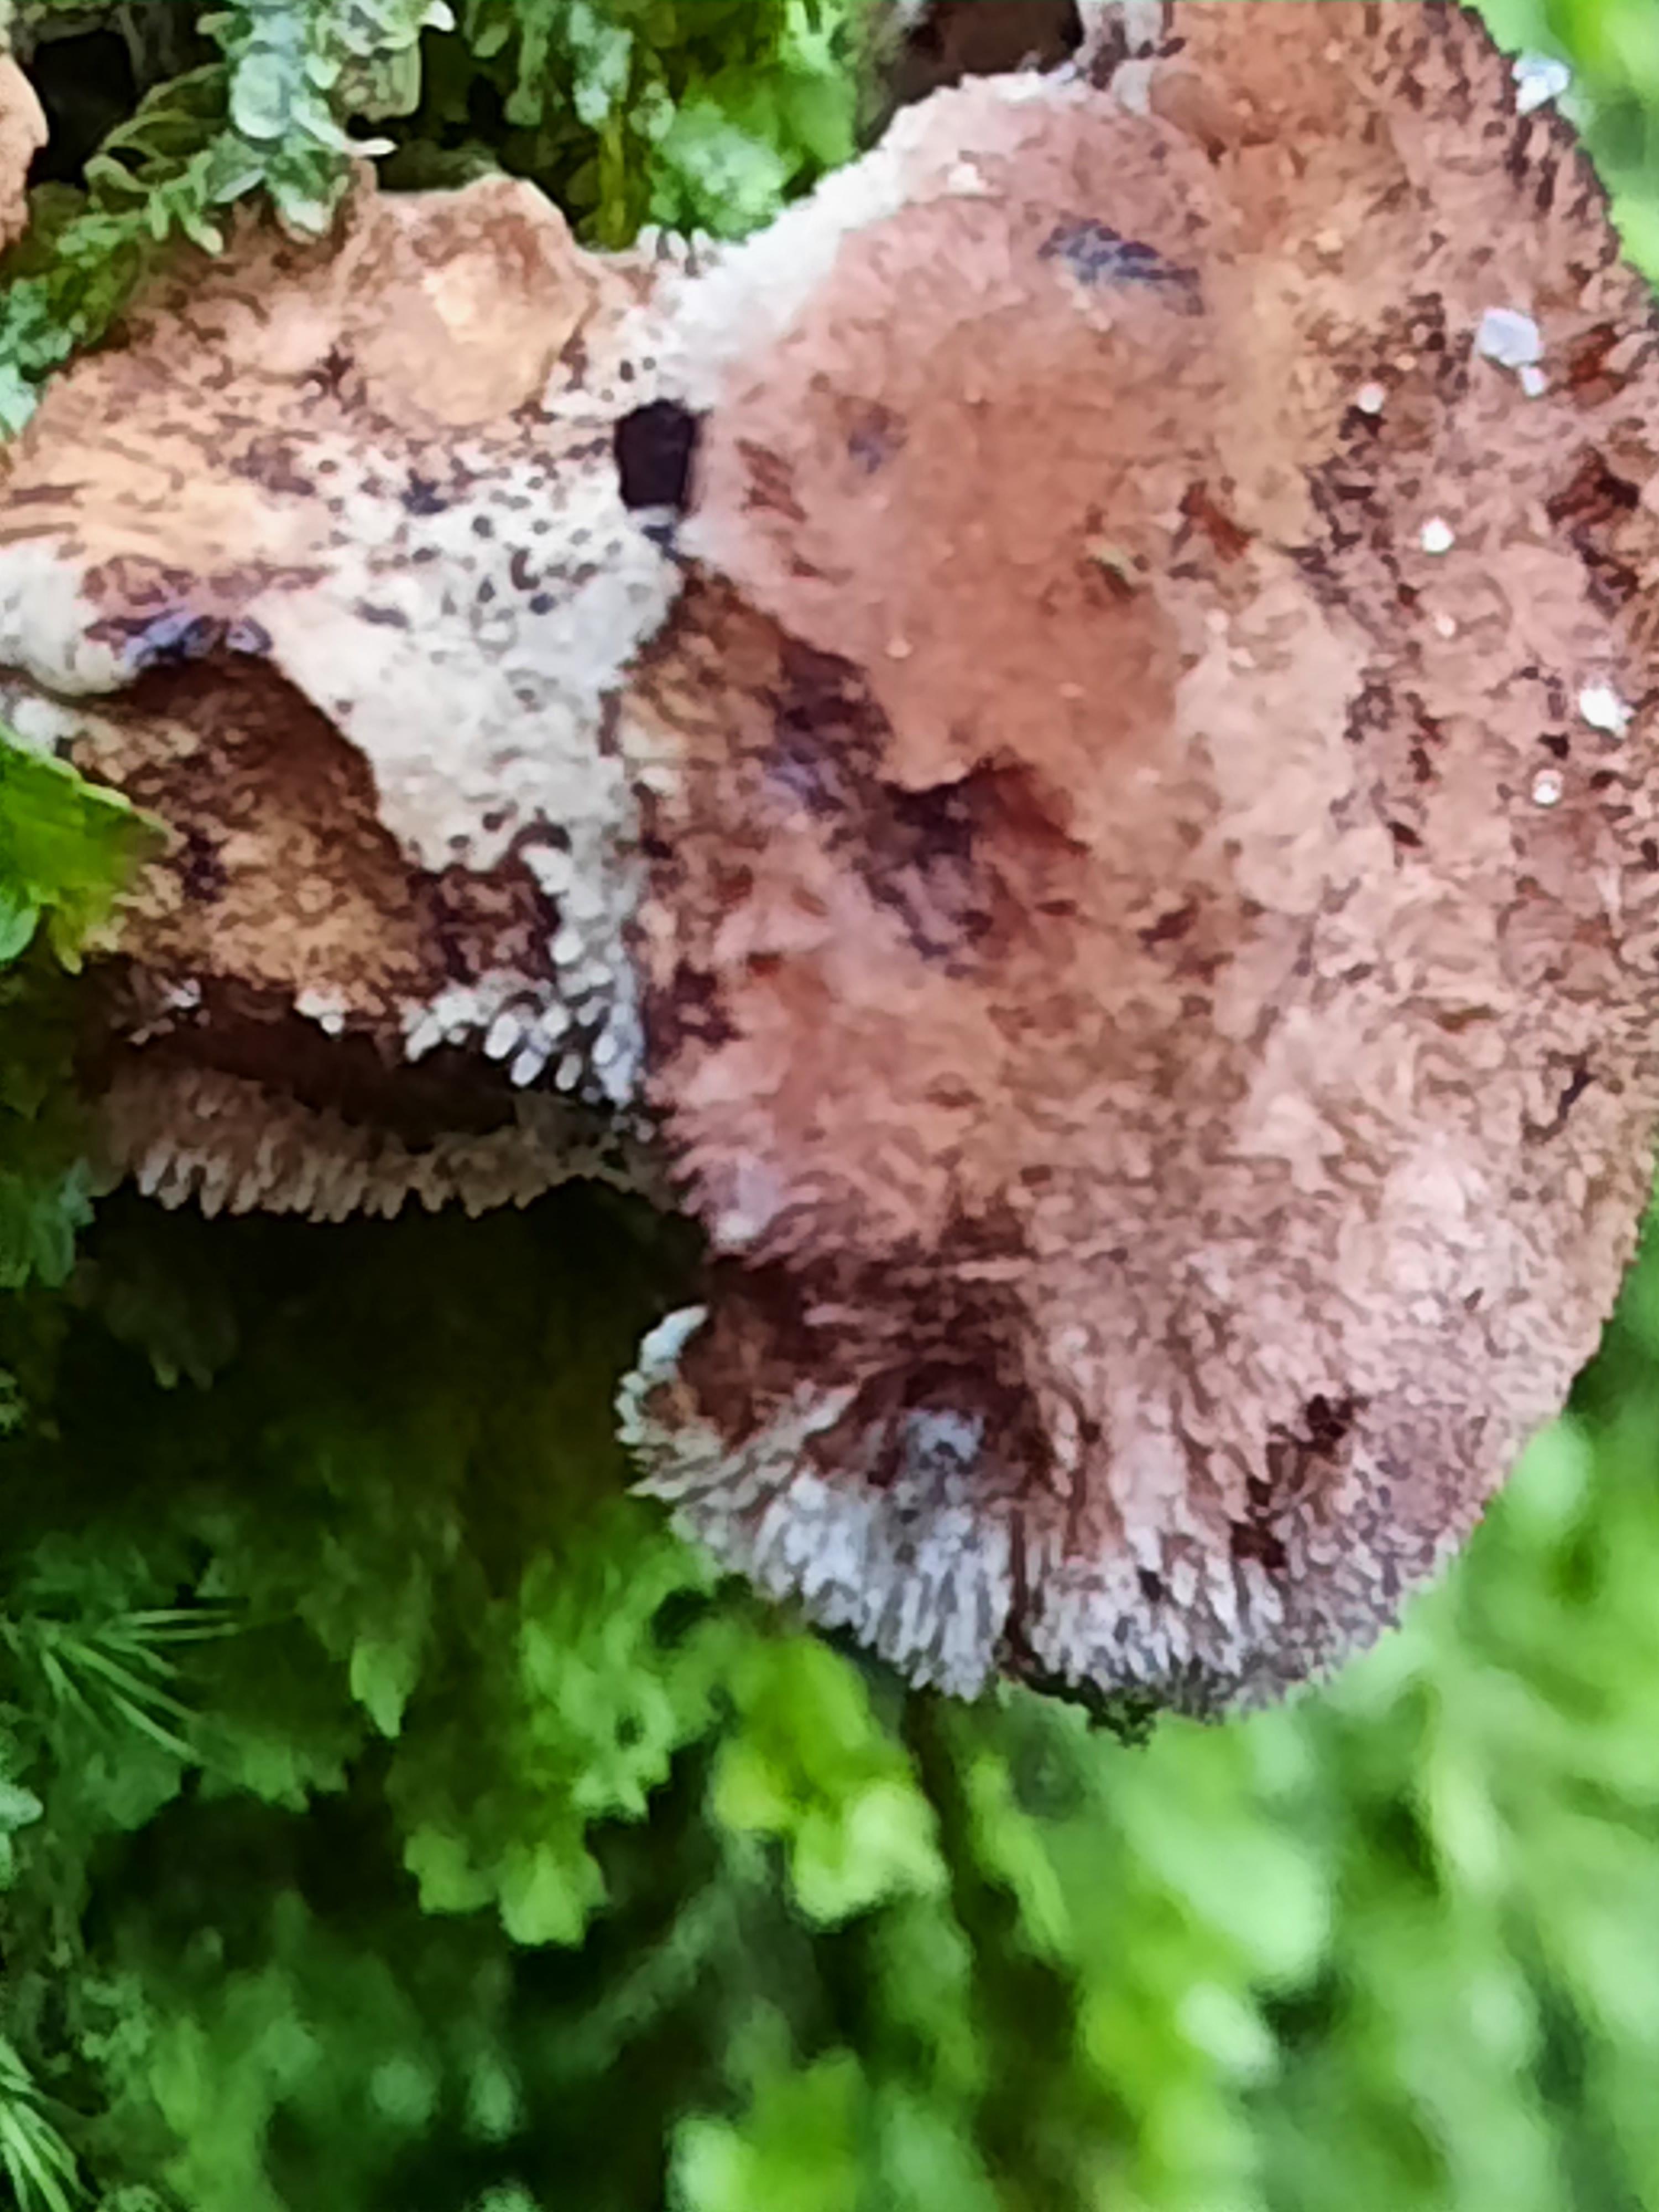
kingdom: Fungi
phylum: Basidiomycota
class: Agaricomycetes
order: Thelephorales
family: Bankeraceae
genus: Hydnellum
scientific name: Hydnellum lepidum
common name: skrænt-korkpigsvamp
